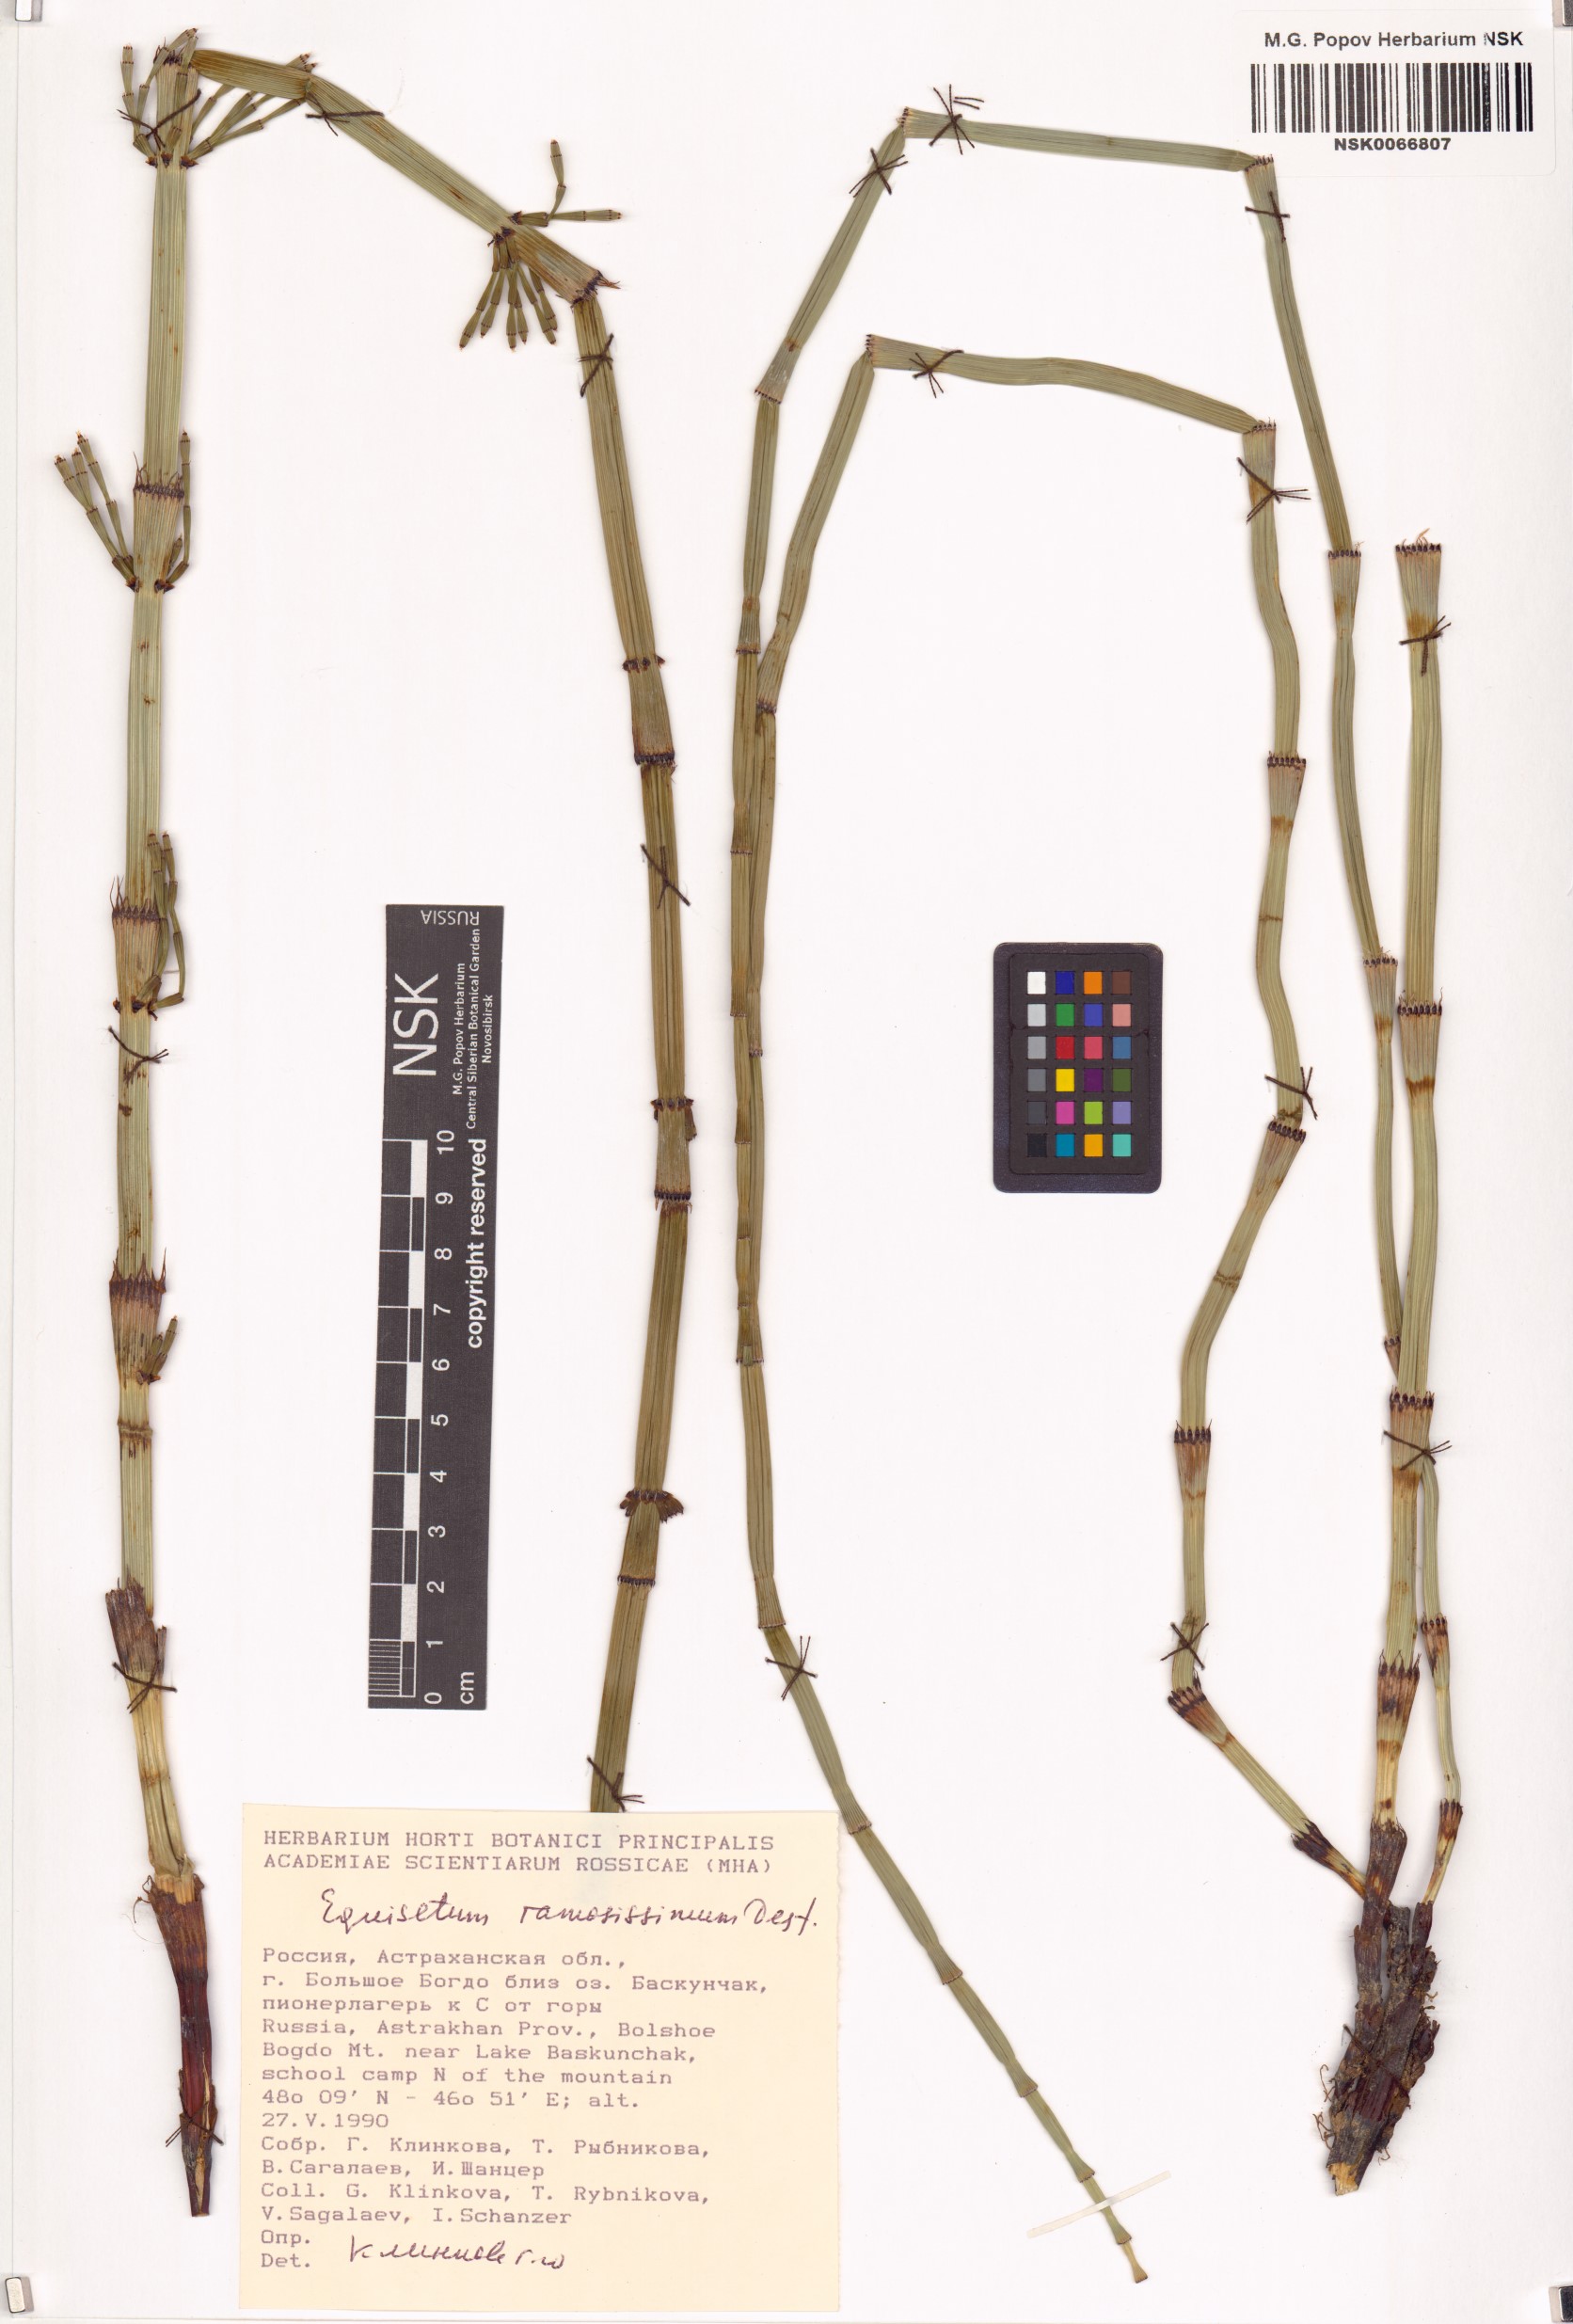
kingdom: Plantae
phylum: Tracheophyta
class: Polypodiopsida
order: Equisetales
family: Equisetaceae
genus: Equisetum
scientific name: Equisetum ramosissimum
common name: Branched horsetail
